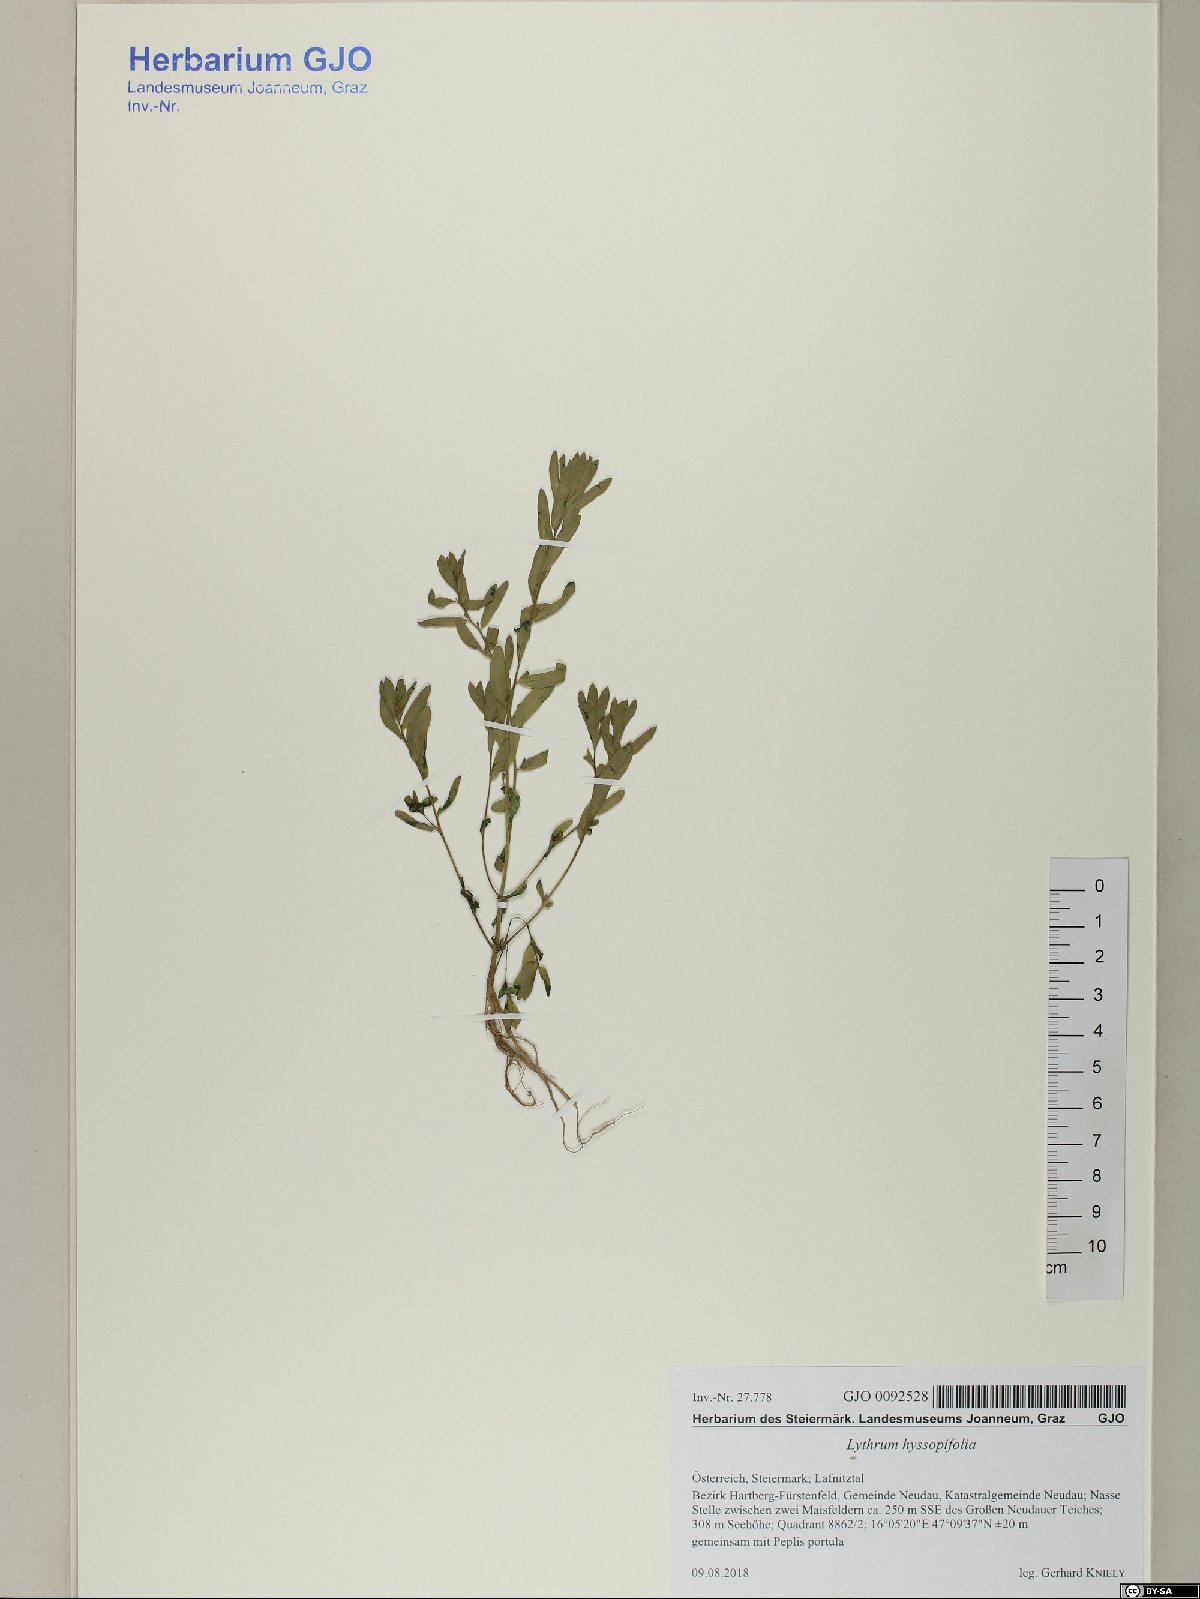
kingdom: Plantae
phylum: Tracheophyta
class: Magnoliopsida
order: Myrtales
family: Lythraceae
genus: Lythrum
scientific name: Lythrum hyssopifolia
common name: Grass-poly
